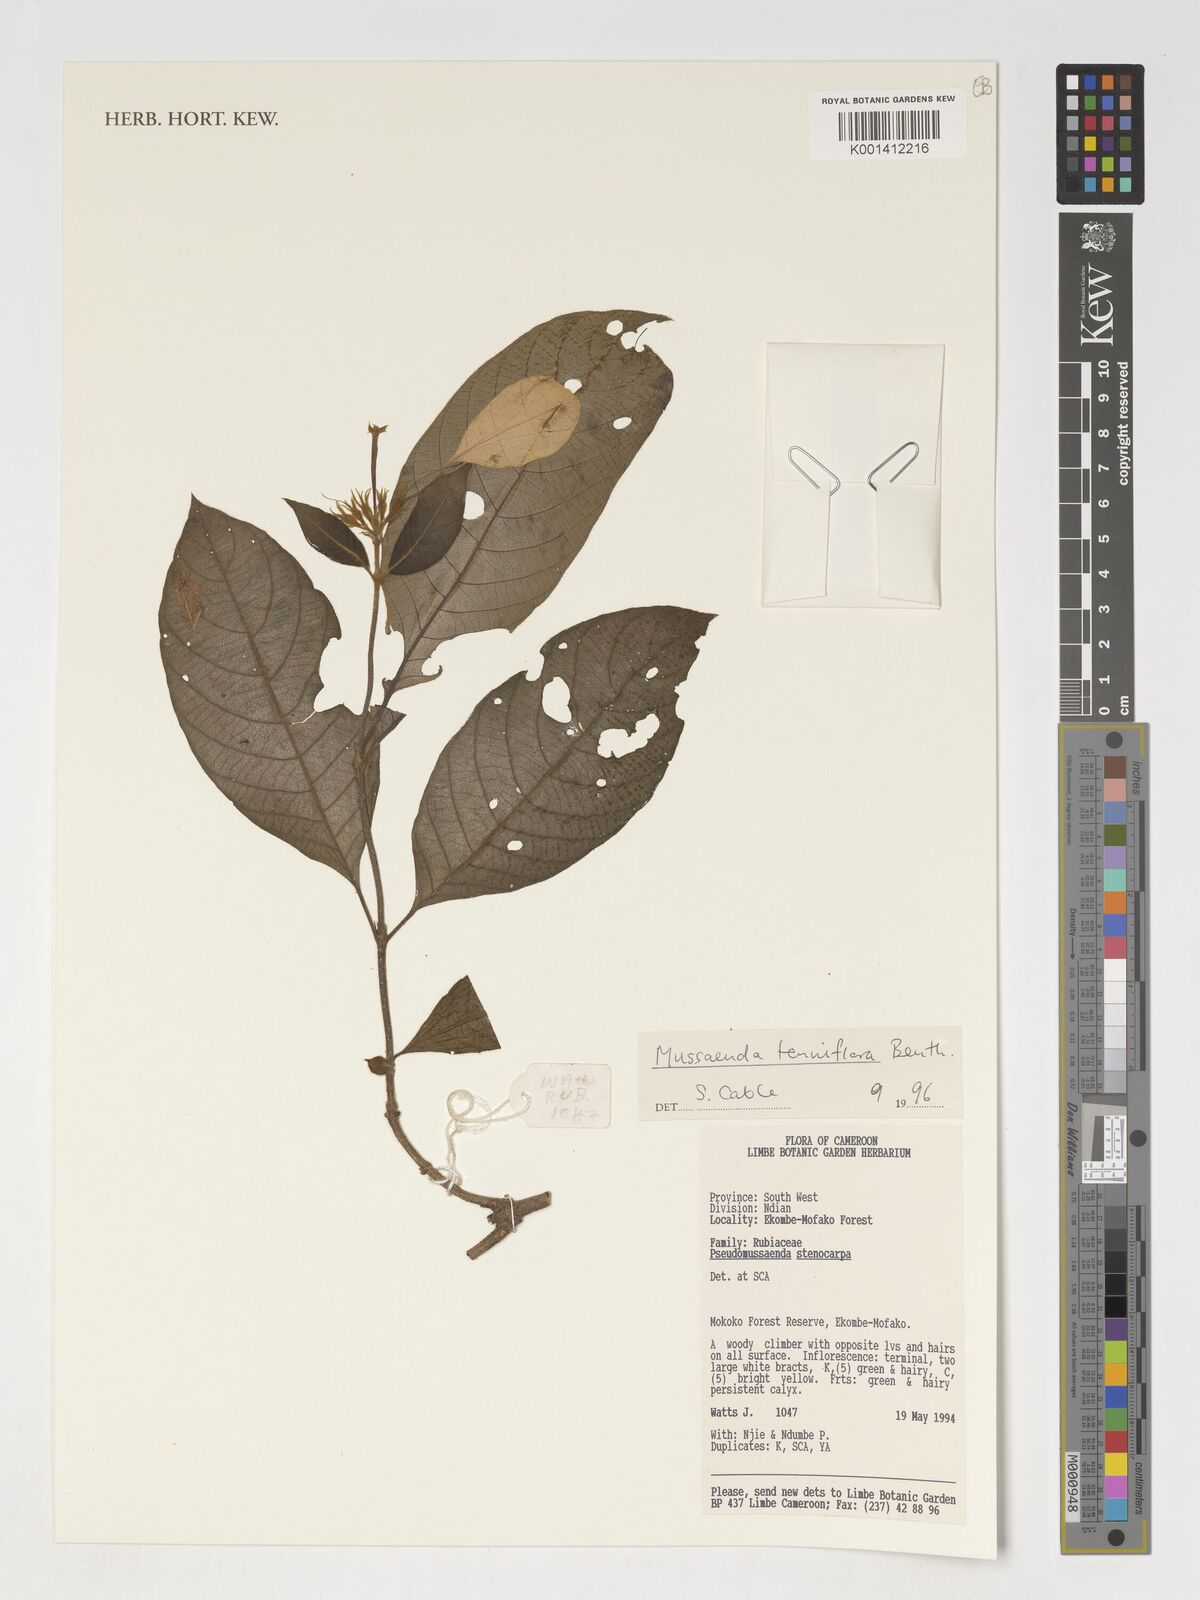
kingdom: Plantae
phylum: Tracheophyta
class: Magnoliopsida
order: Gentianales
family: Rubiaceae
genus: Mussaenda
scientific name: Mussaenda tenuiflora
